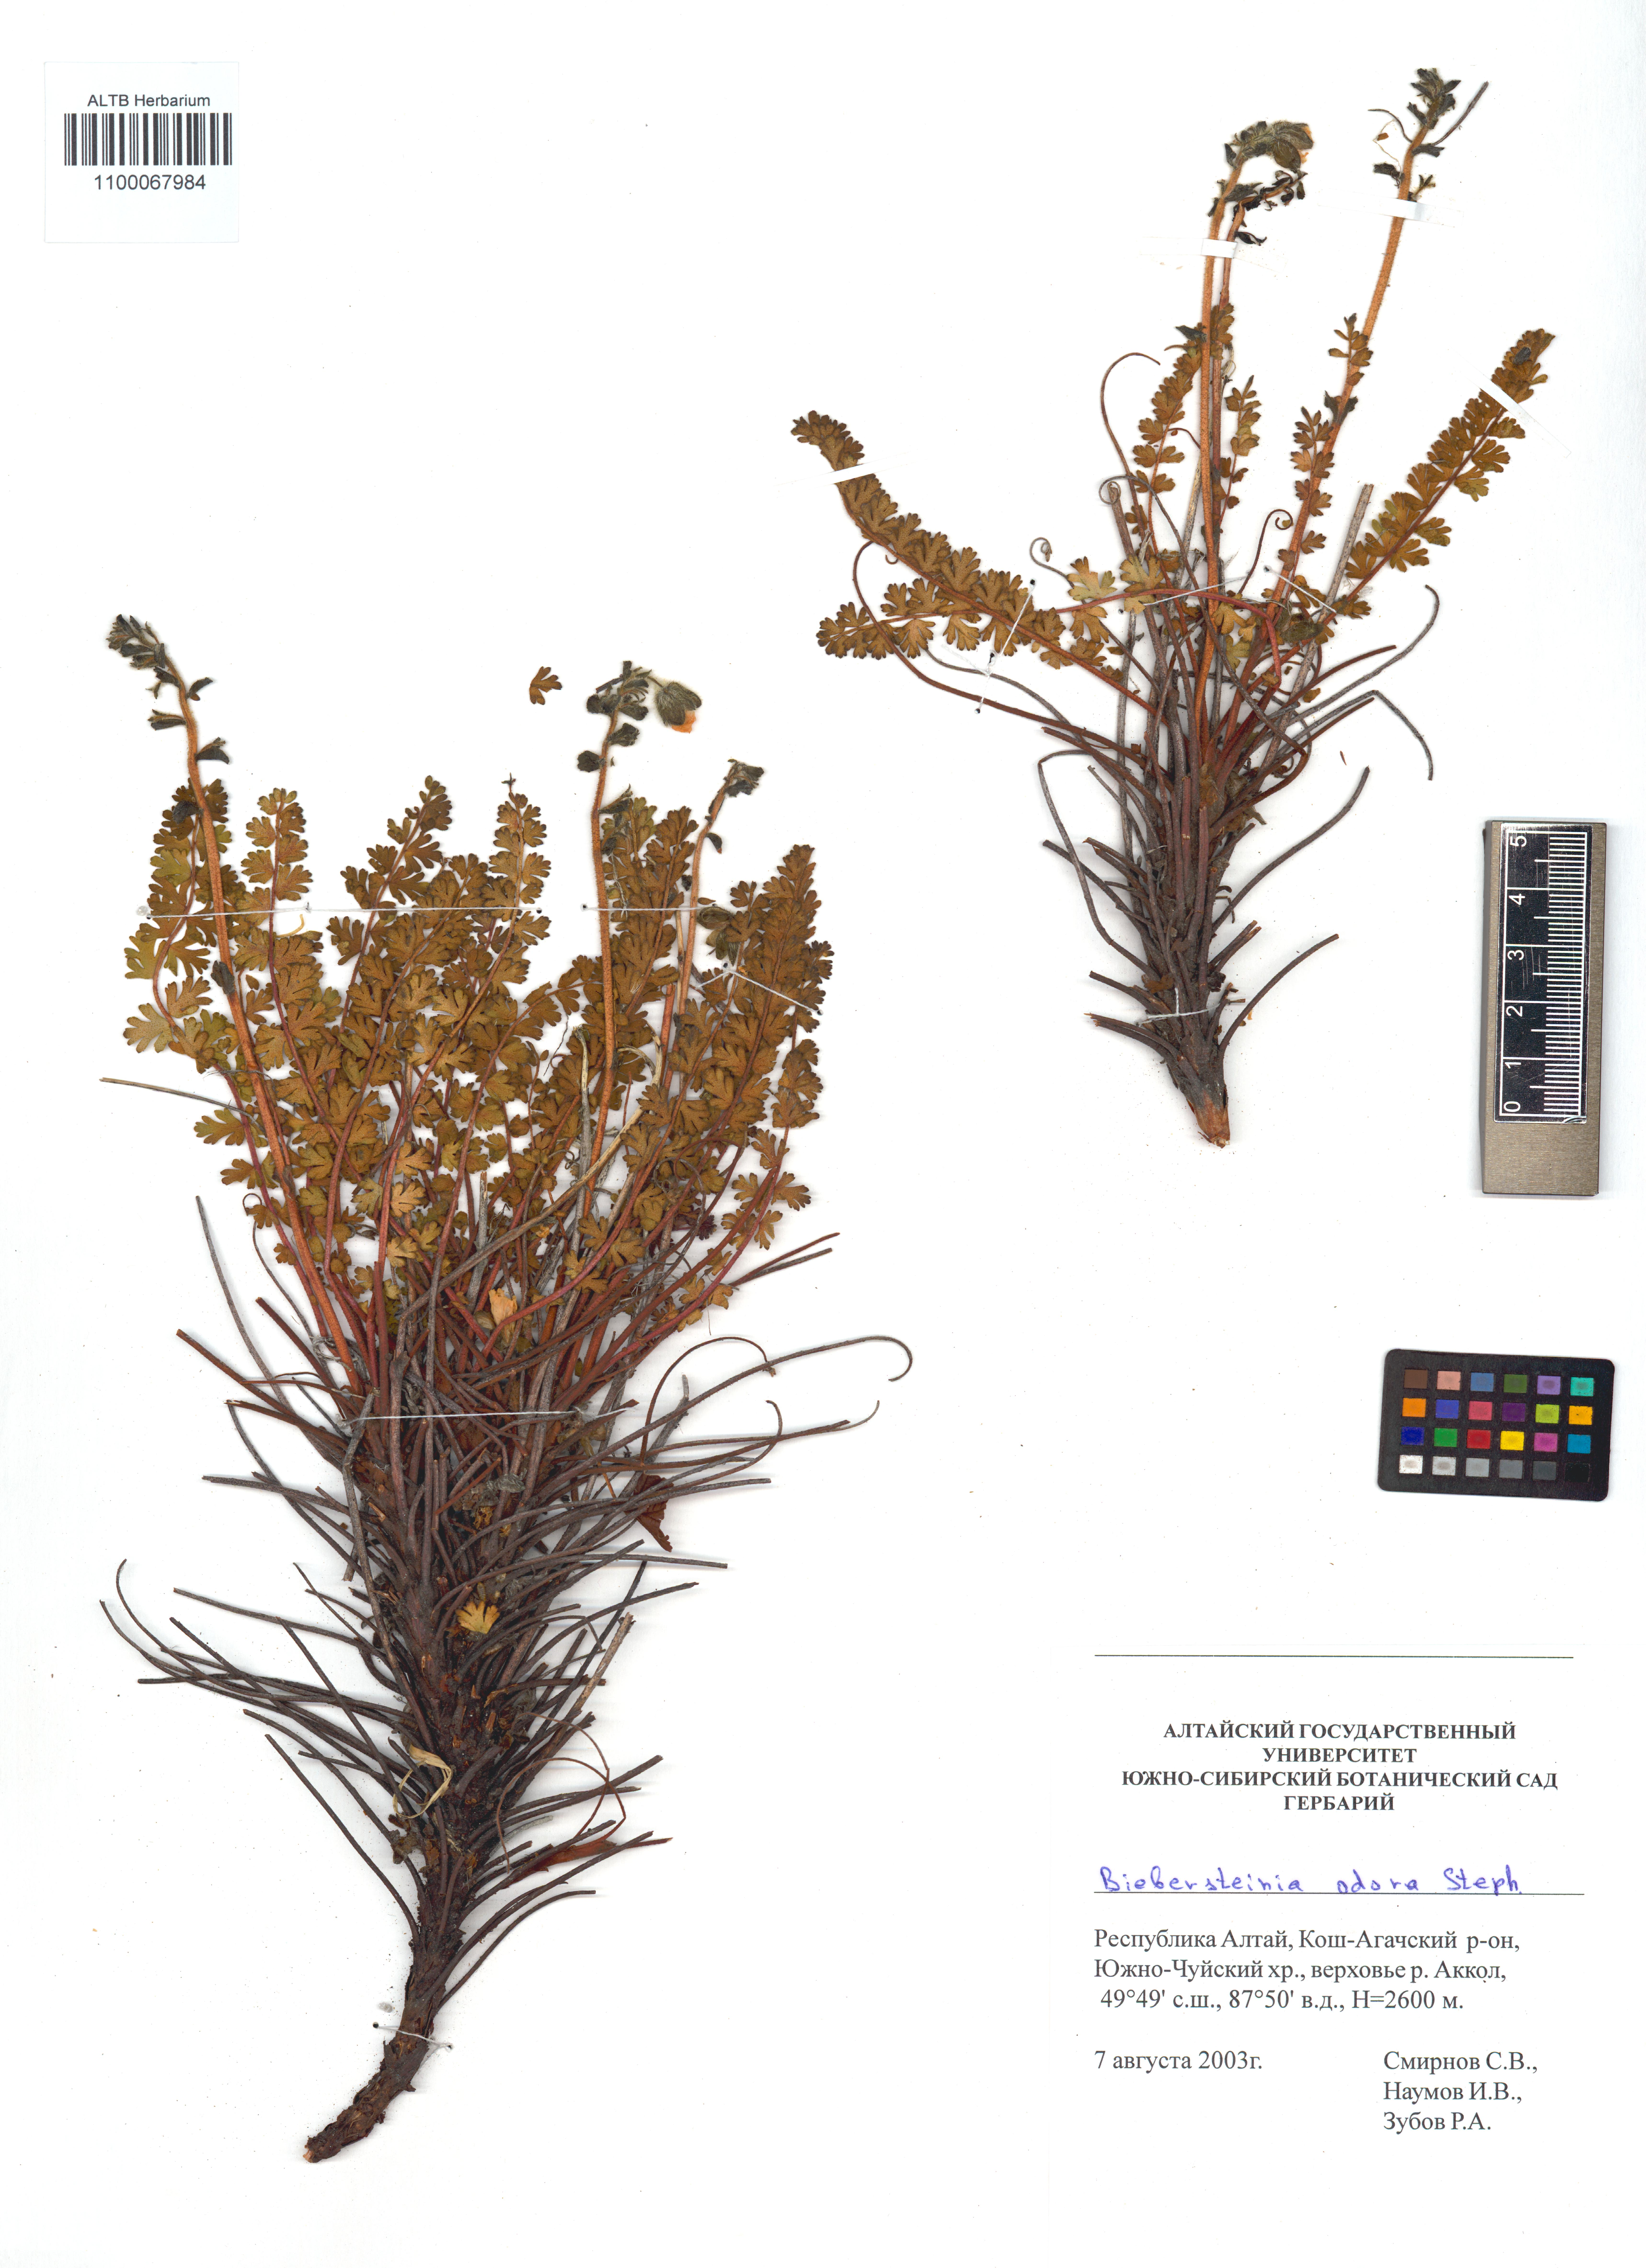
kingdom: Plantae
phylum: Tracheophyta
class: Magnoliopsida
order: Sapindales
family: Biebersteiniaceae
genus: Biebersteinia
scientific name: Biebersteinia odora
